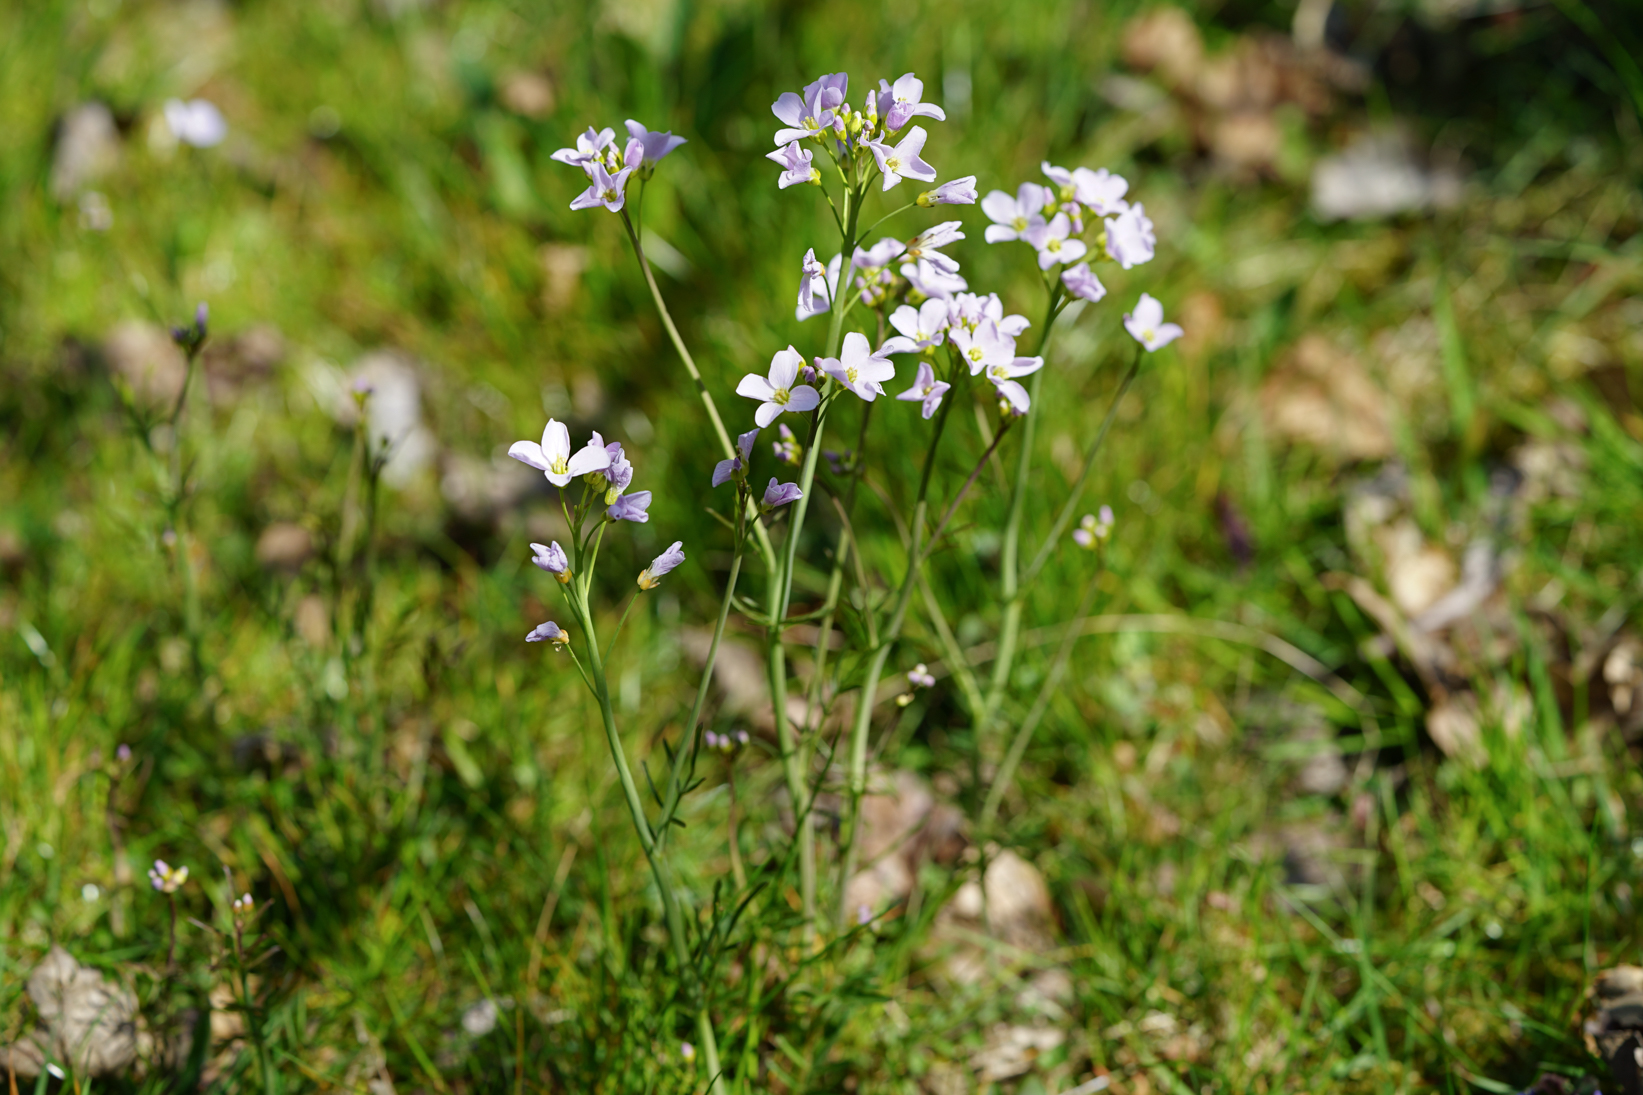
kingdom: Plantae
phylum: Tracheophyta
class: Magnoliopsida
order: Brassicales
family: Brassicaceae
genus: Cardamine
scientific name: Cardamine pratensis
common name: Cuckoo flower
